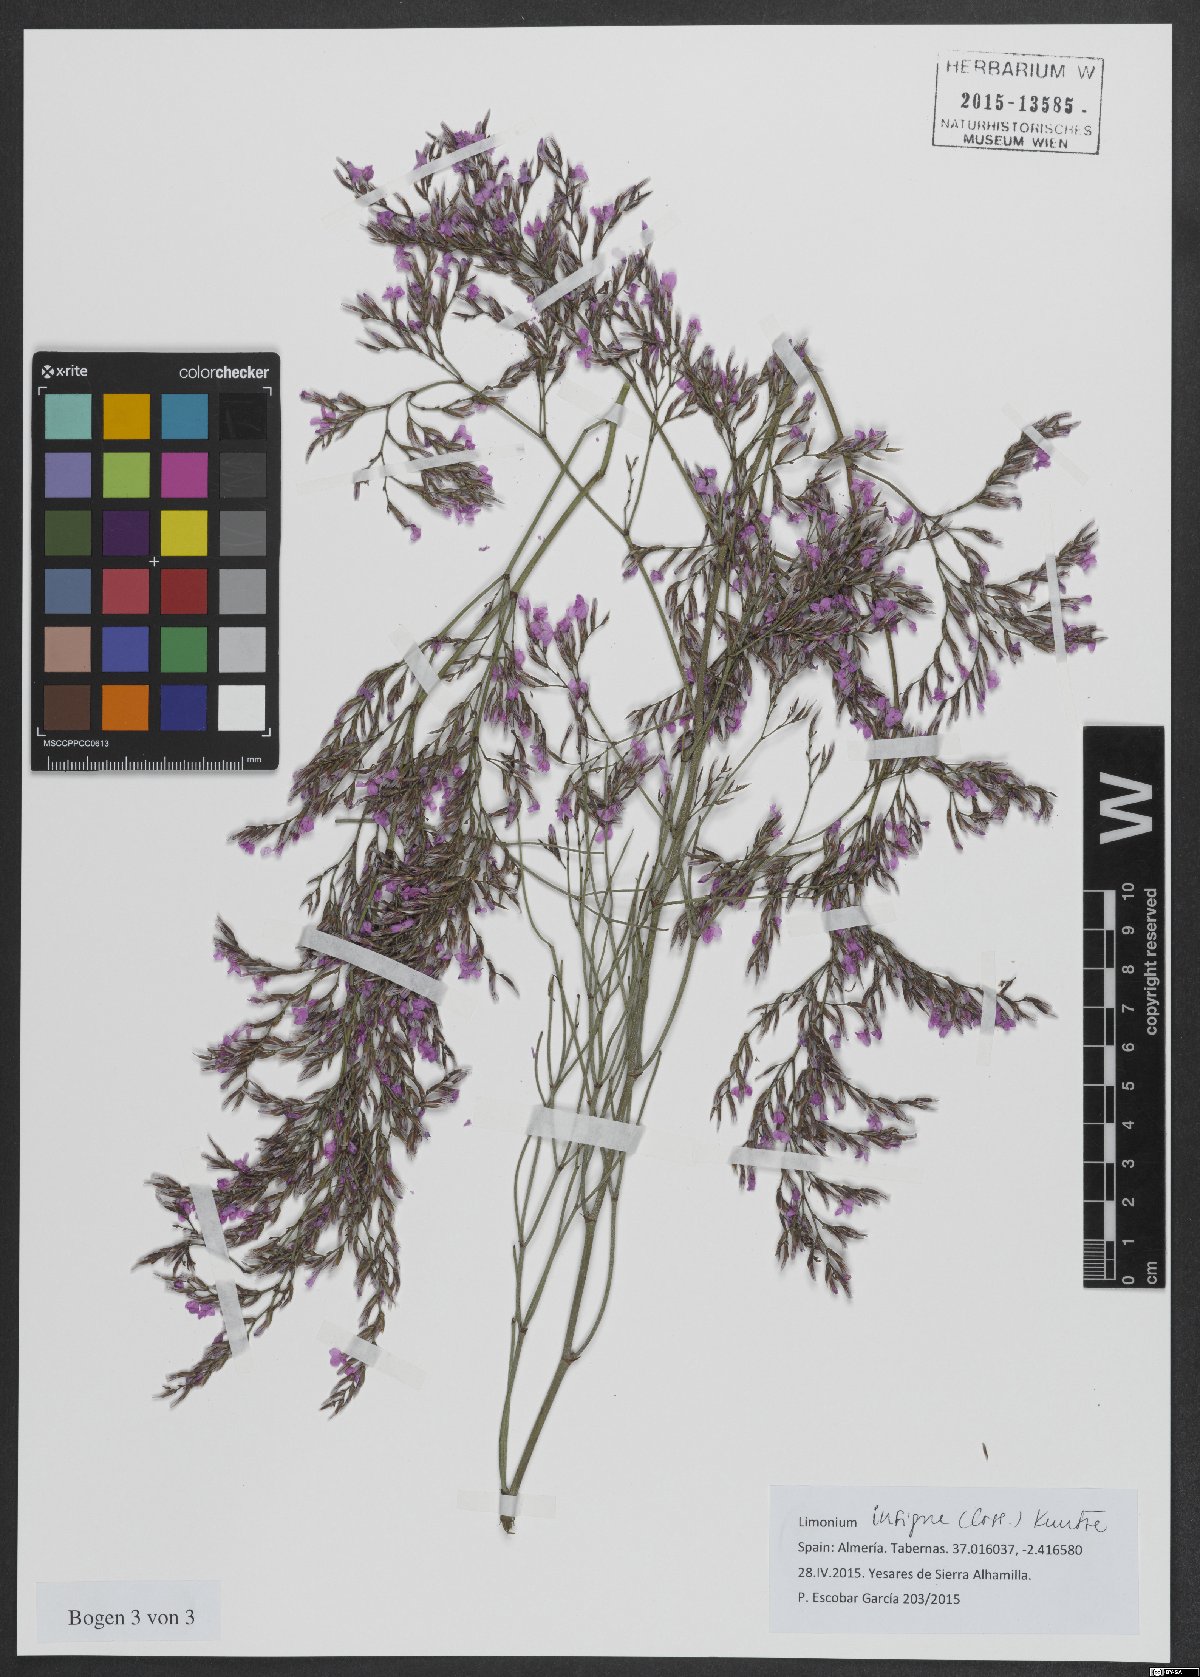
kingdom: Plantae
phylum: Tracheophyta
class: Magnoliopsida
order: Caryophyllales
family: Plumbaginaceae
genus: Limonium
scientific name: Limonium insigne
